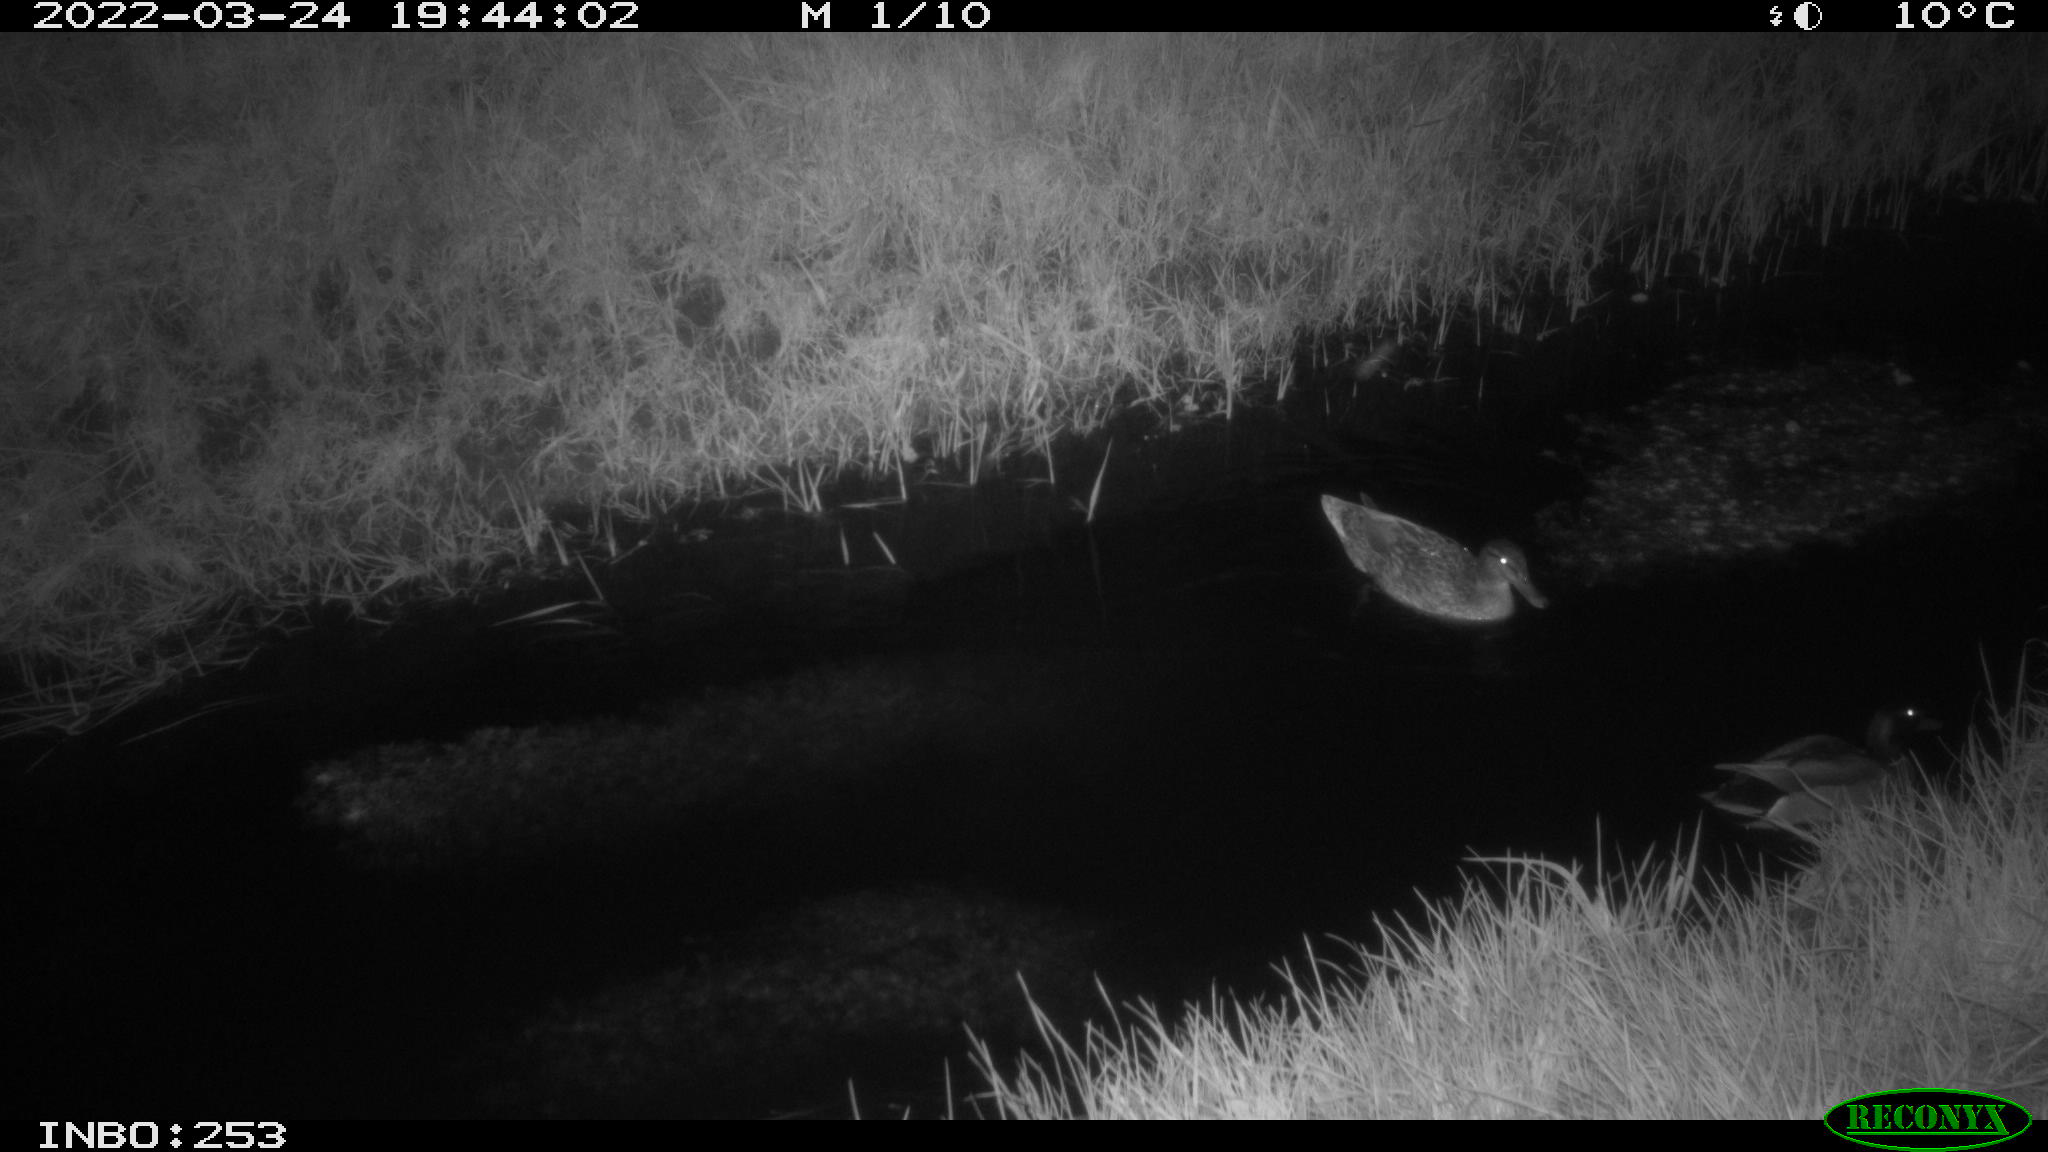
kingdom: Animalia
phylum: Chordata
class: Aves
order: Anseriformes
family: Anatidae
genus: Anas
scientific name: Anas platyrhynchos
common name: Mallard
